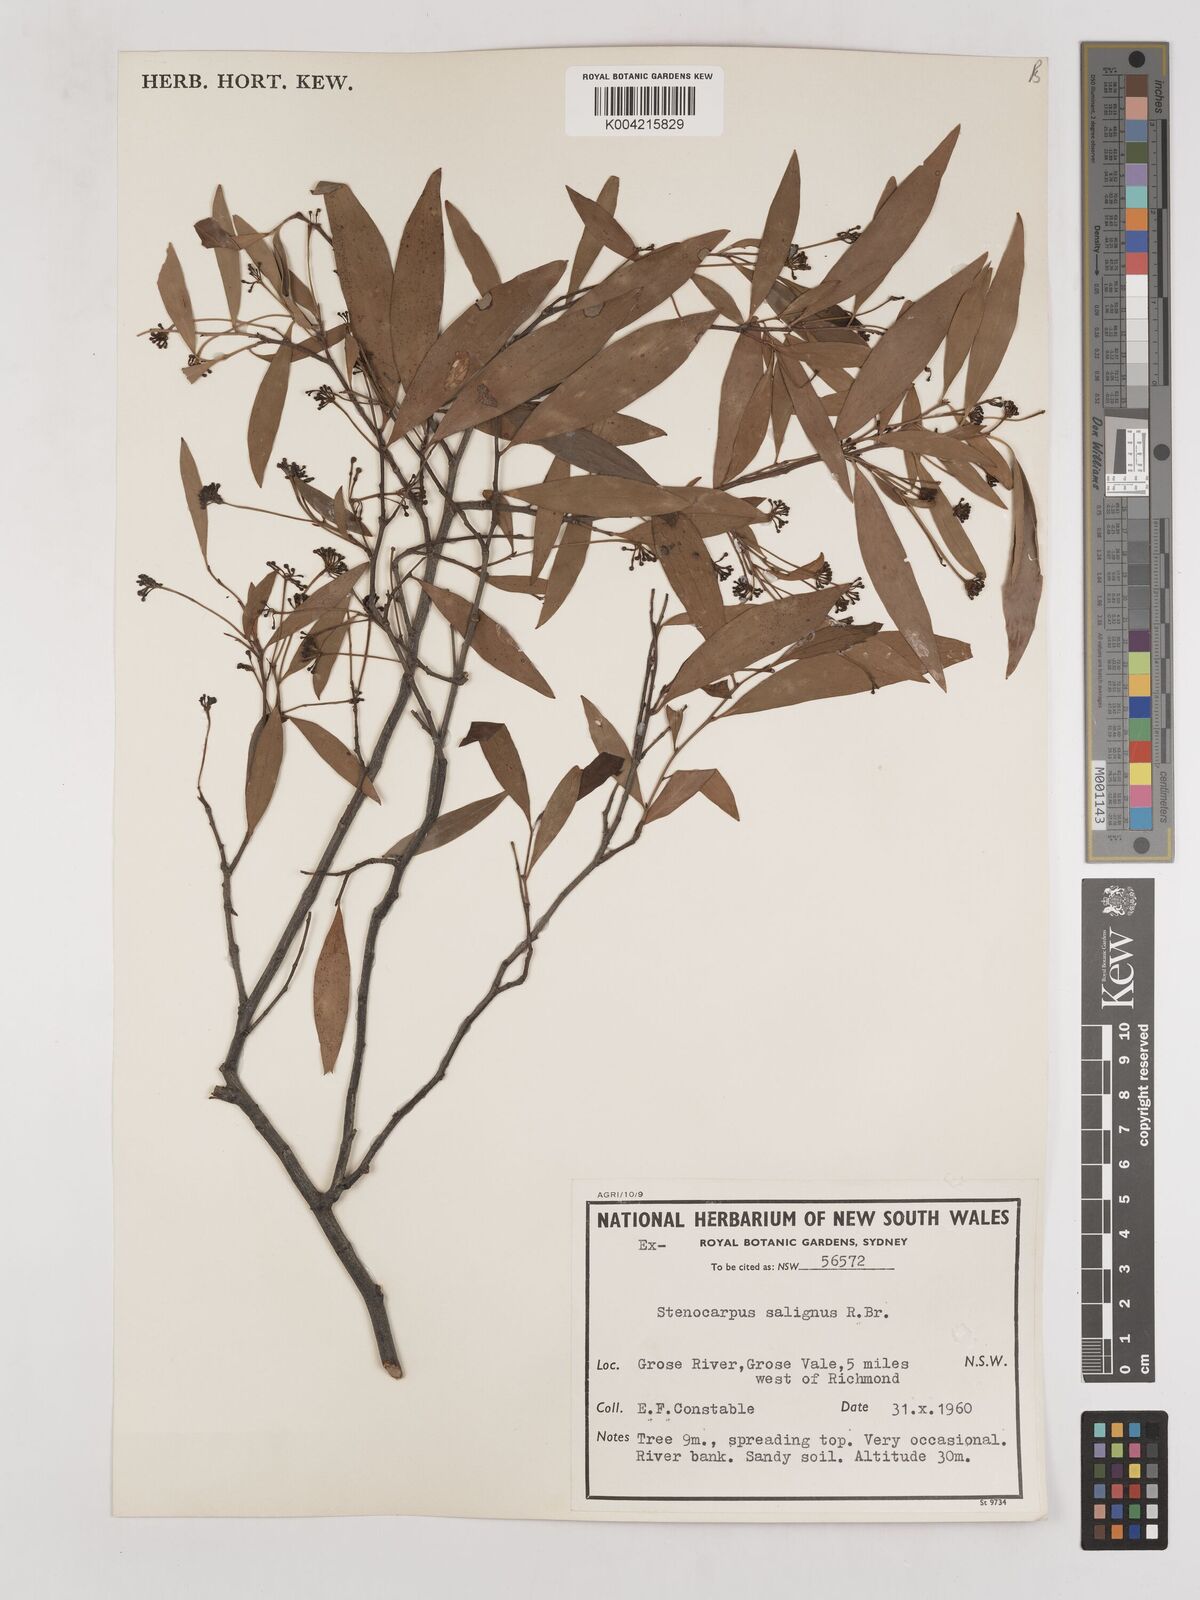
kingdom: Plantae
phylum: Tracheophyta
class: Magnoliopsida
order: Proteales
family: Proteaceae
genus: Stenocarpus
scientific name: Stenocarpus salignus
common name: Red silky-oak
